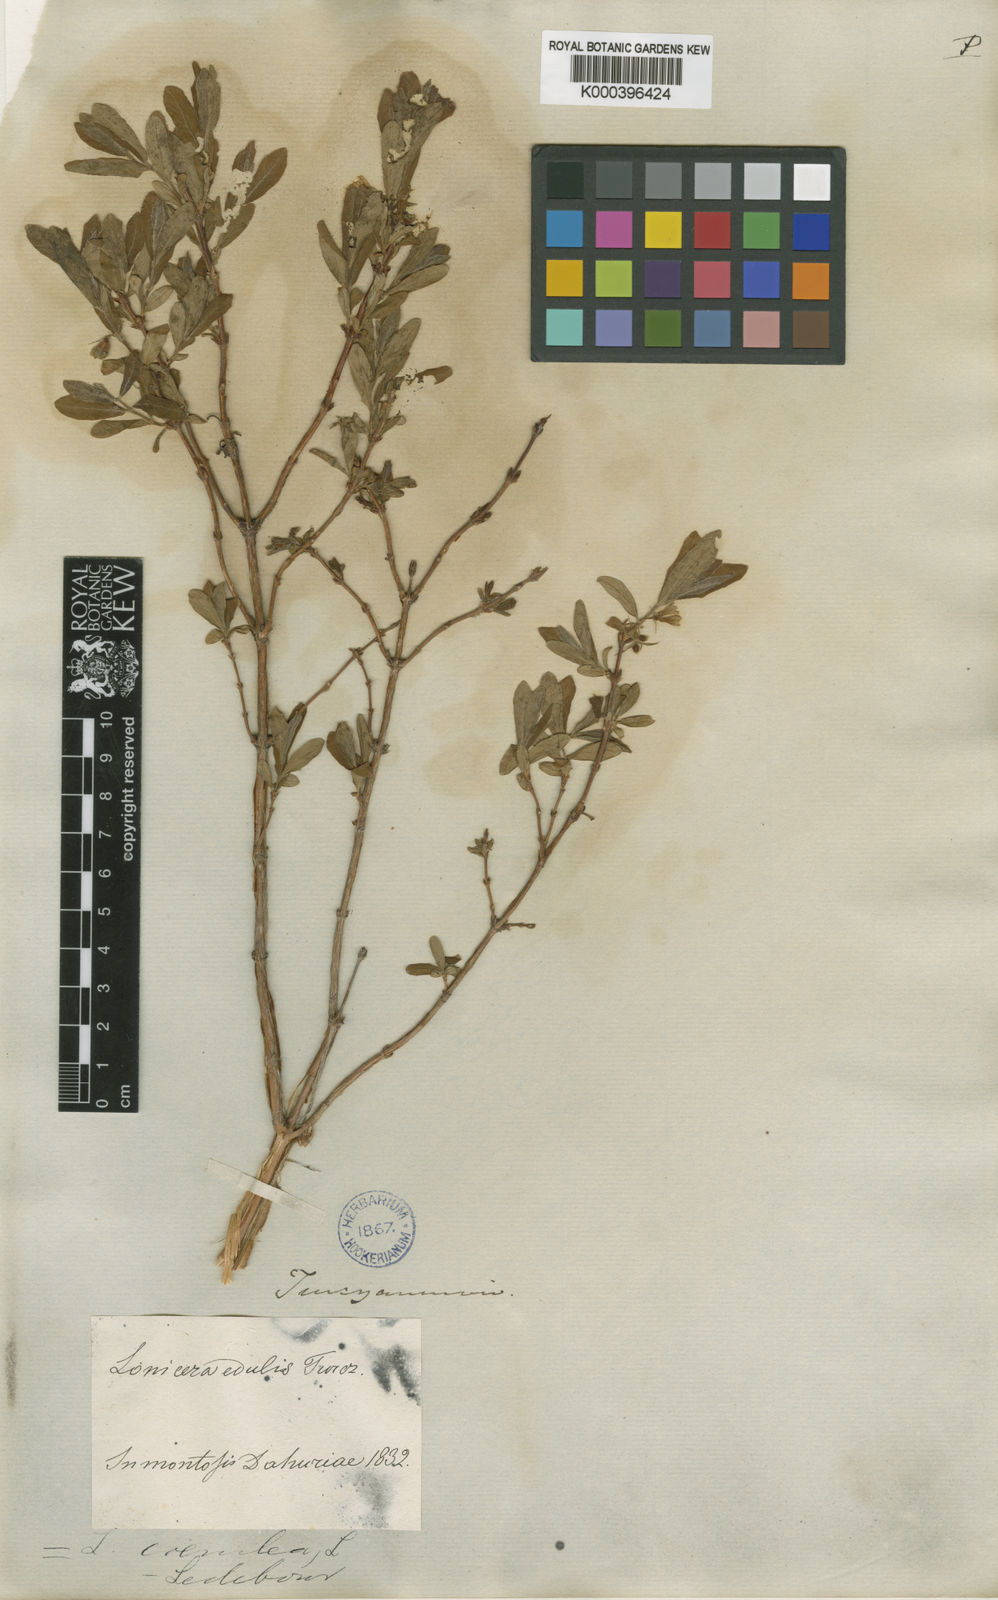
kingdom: Plantae
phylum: Tracheophyta
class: Magnoliopsida
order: Dipsacales
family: Caprifoliaceae
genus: Lonicera
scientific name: Lonicera caerulea
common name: Blue honeysuckle
